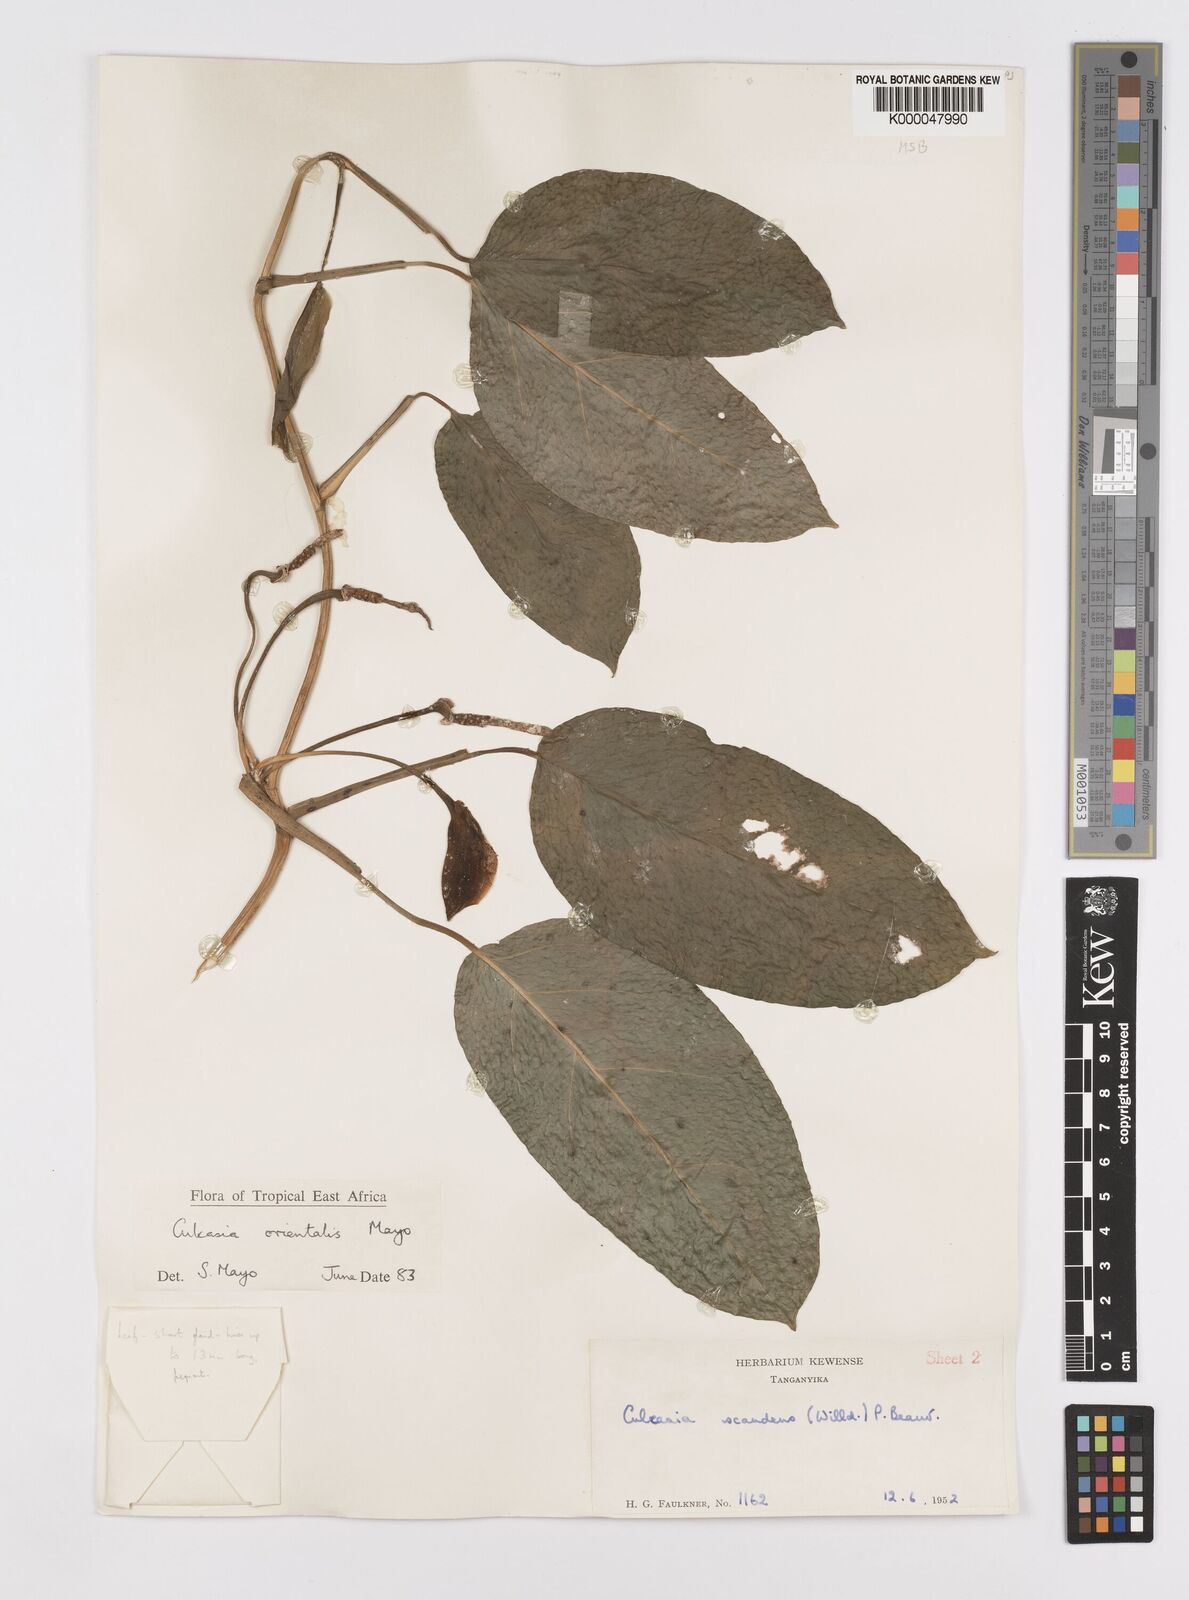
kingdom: Plantae
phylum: Tracheophyta
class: Liliopsida
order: Alismatales
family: Araceae
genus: Culcasia
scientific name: Culcasia orientalis
